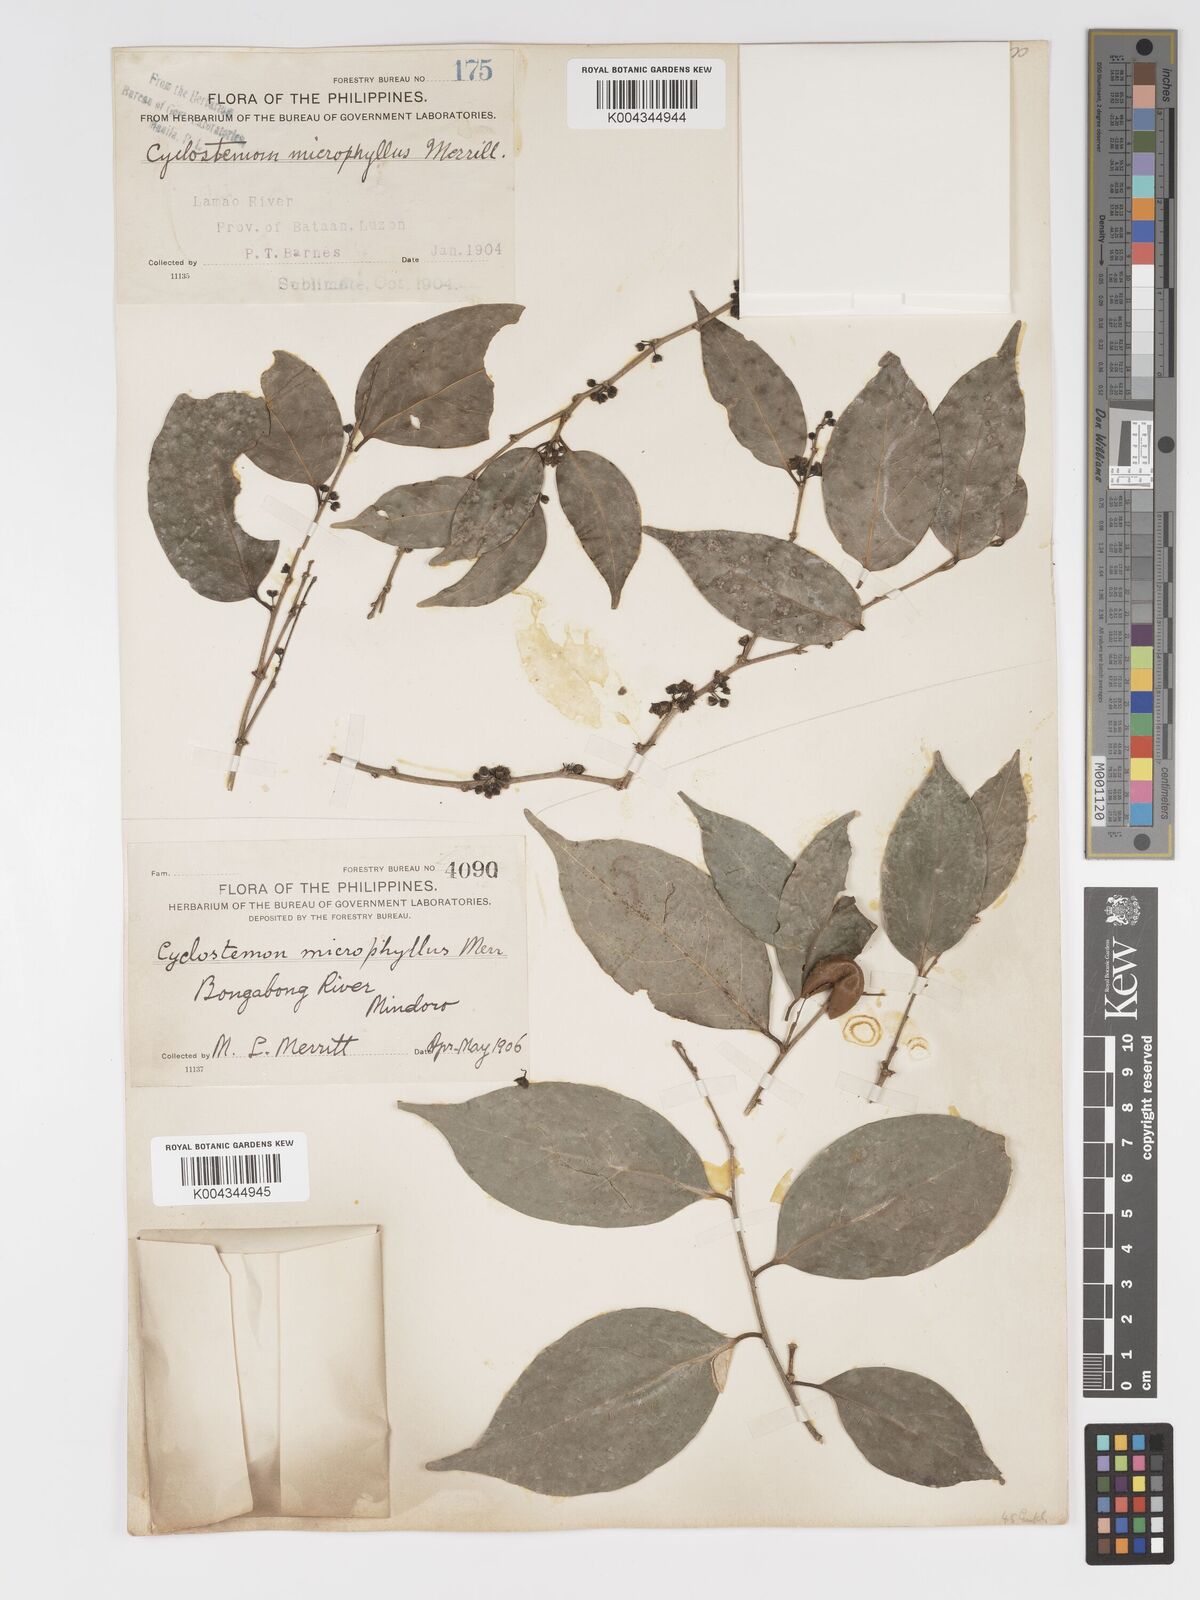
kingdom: Plantae
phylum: Tracheophyta
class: Magnoliopsida
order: Malpighiales
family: Putranjivaceae
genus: Drypetes
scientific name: Drypetes microphylla
